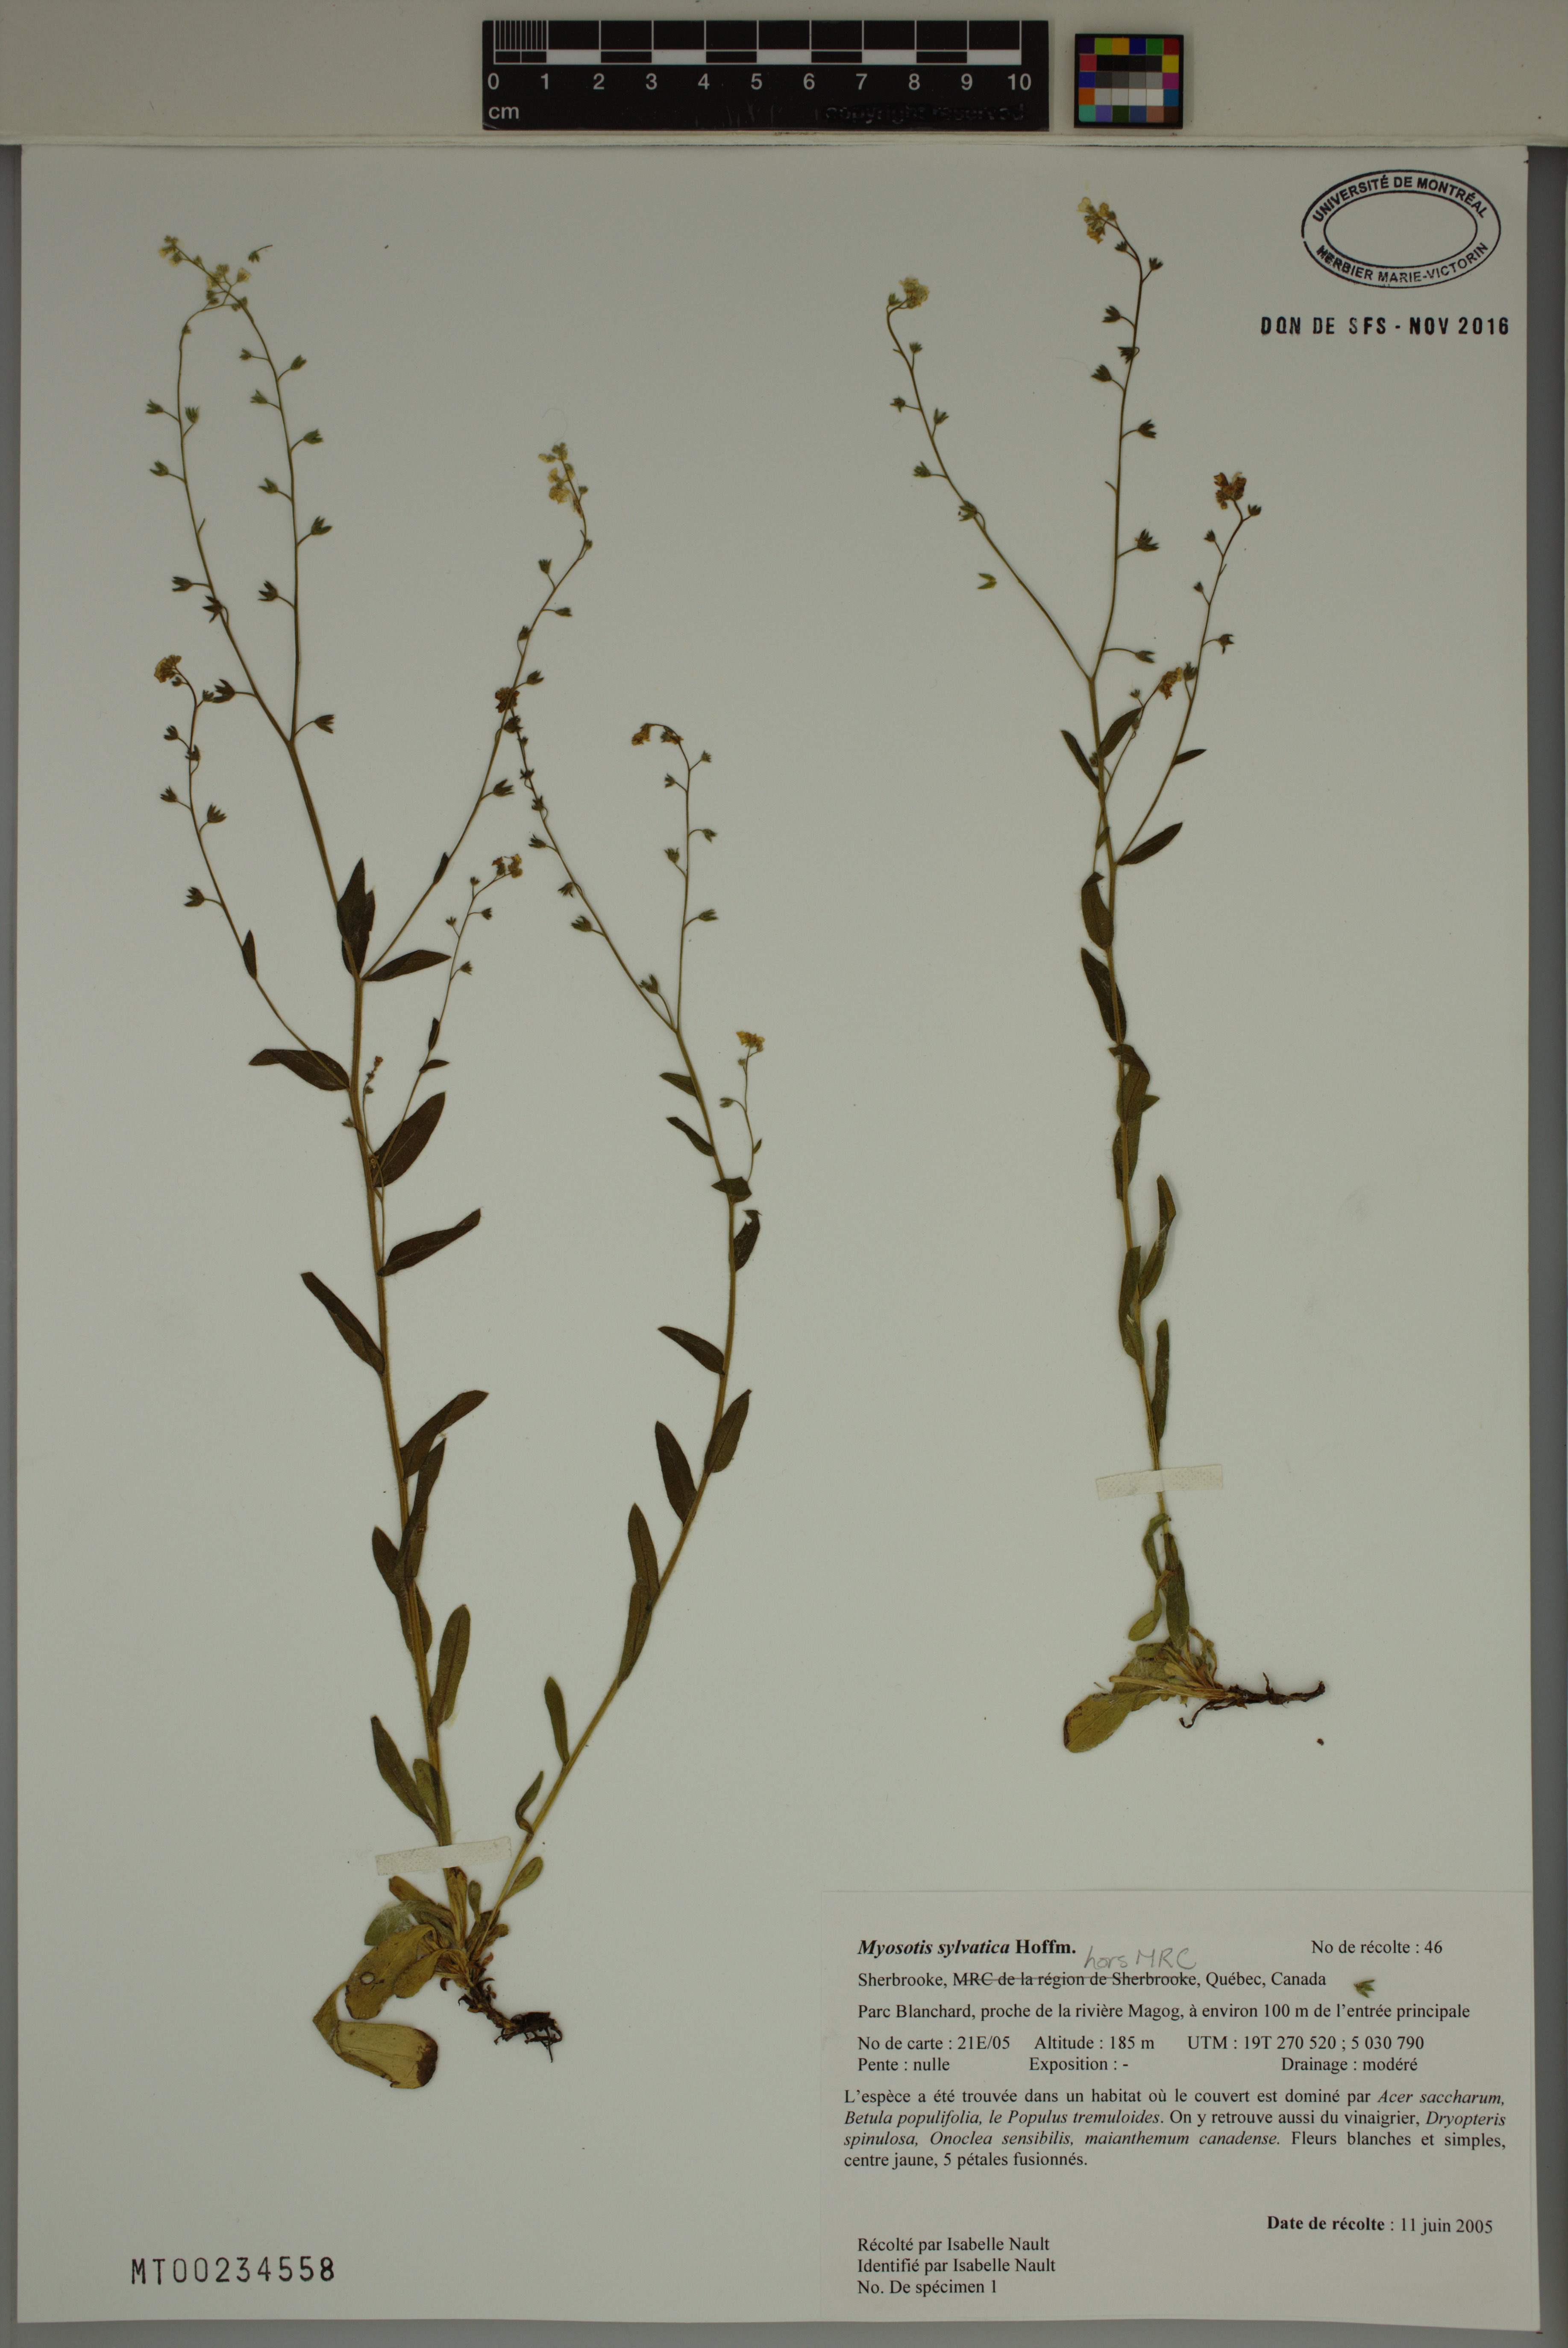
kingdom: Plantae
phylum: Tracheophyta
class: Magnoliopsida
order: Boraginales
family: Boraginaceae
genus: Myosotis
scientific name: Myosotis sylvatica
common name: Wood forget-me-not
